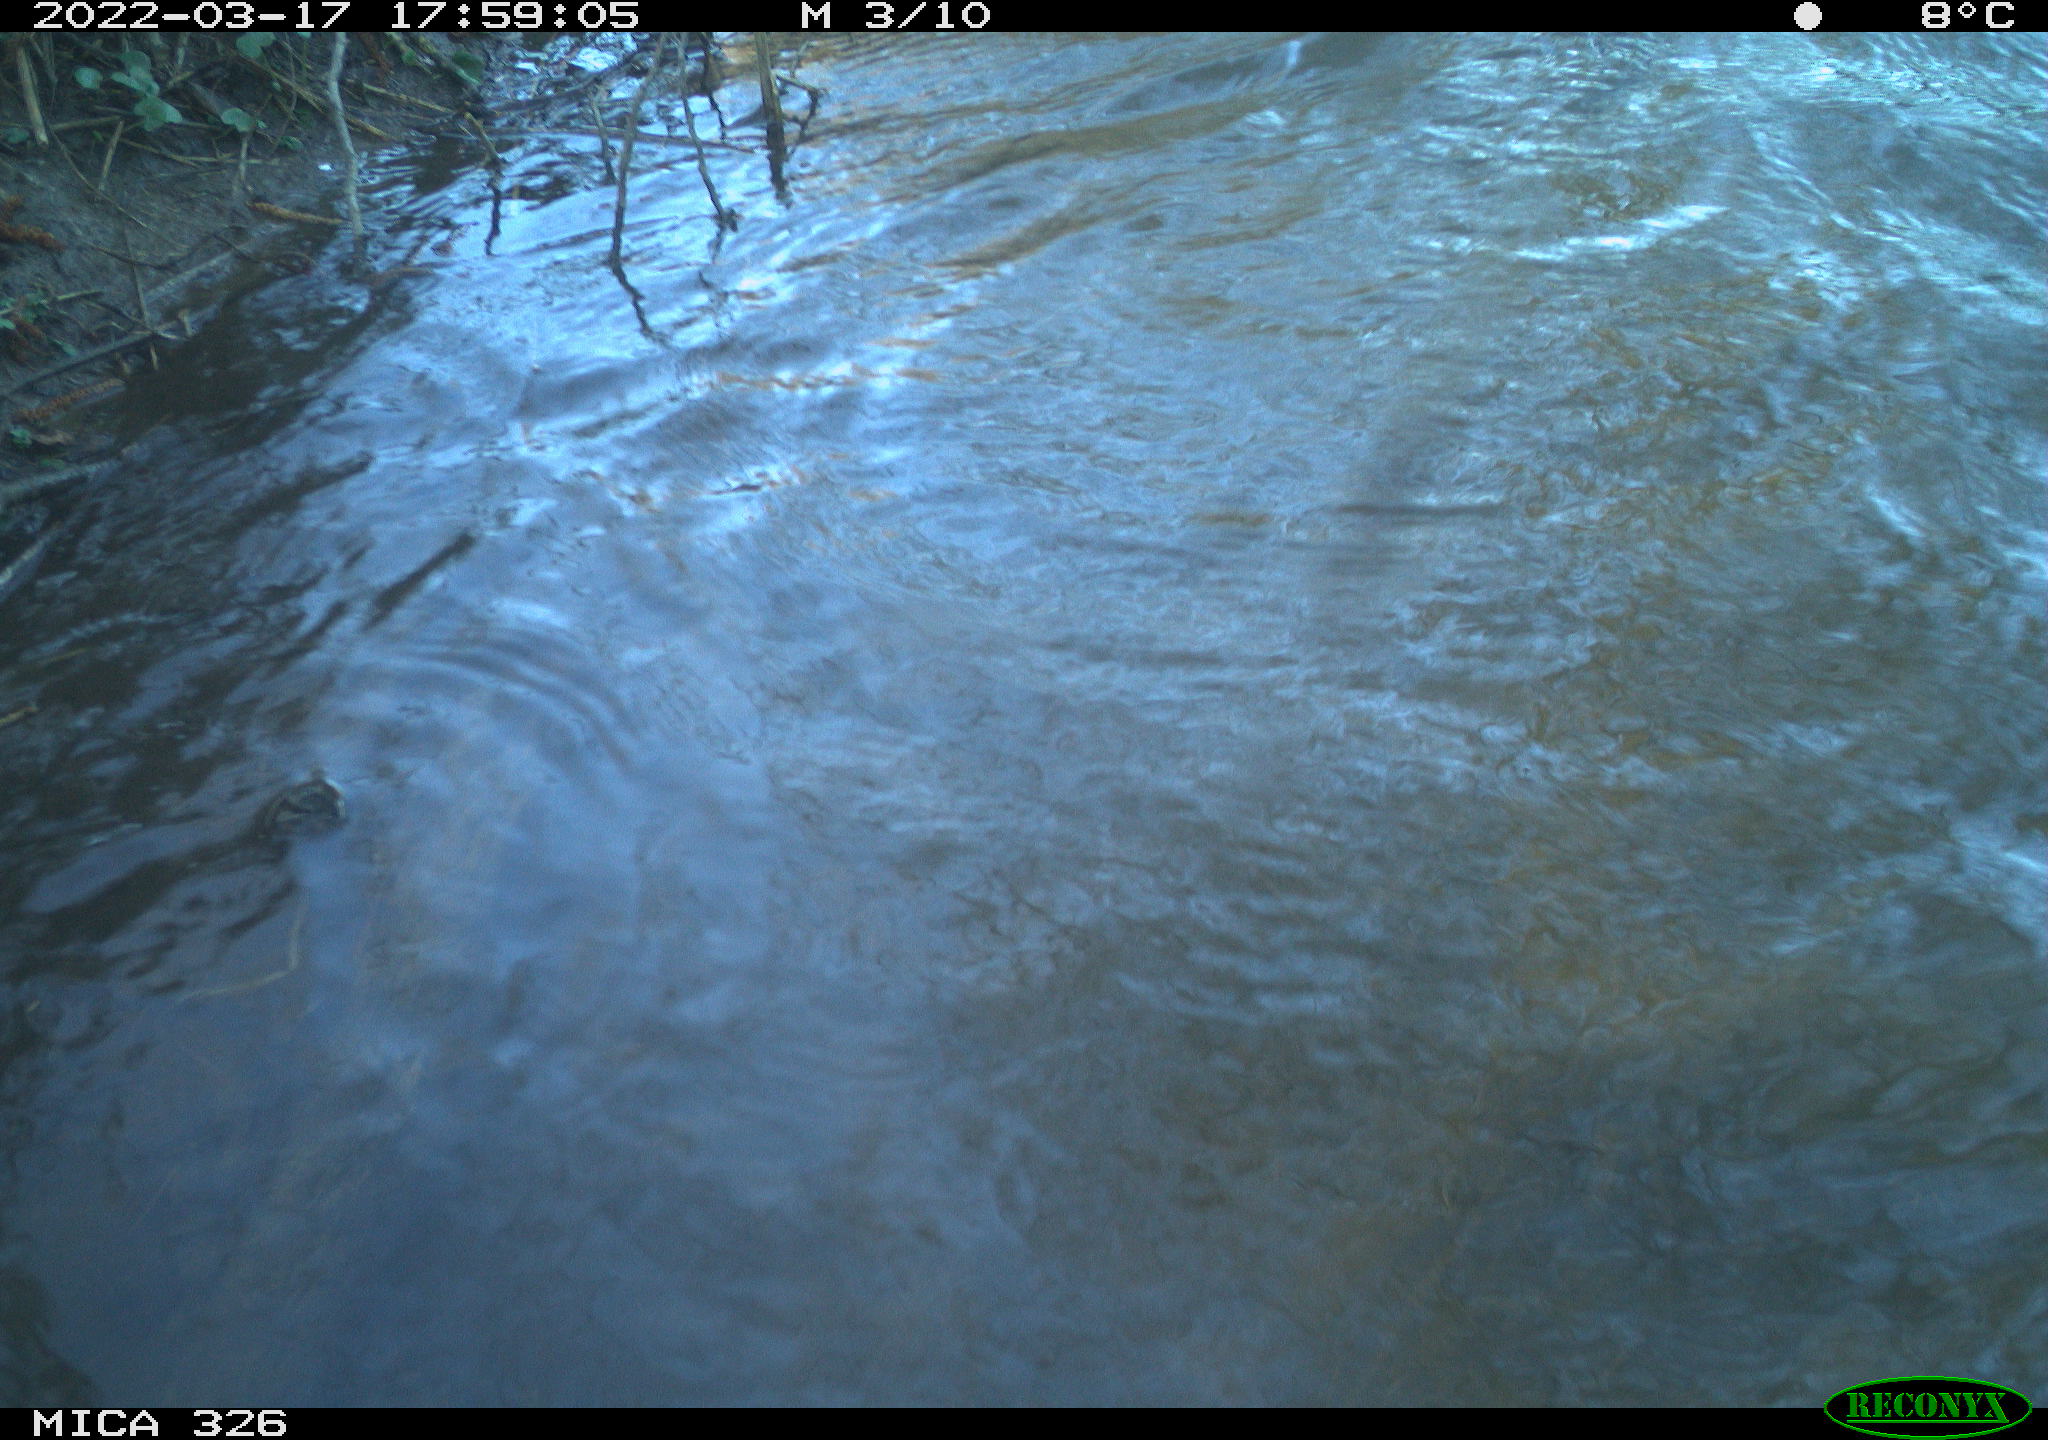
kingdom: Animalia
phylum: Chordata
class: Mammalia
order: Rodentia
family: Cricetidae
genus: Ondatra
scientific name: Ondatra zibethicus
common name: Muskrat
